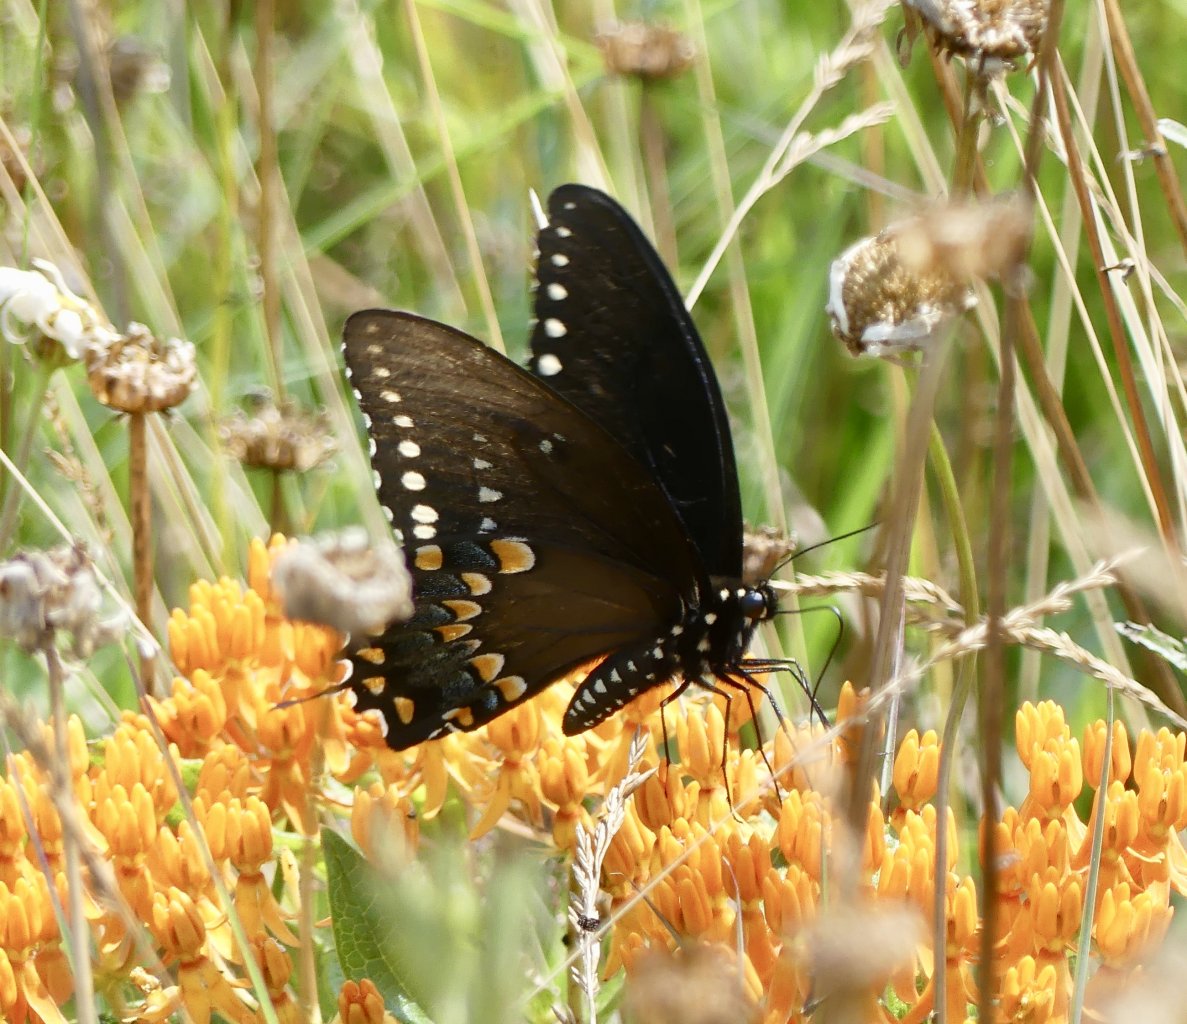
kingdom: Animalia
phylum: Arthropoda
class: Insecta
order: Lepidoptera
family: Papilionidae
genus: Pterourus
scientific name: Pterourus troilus
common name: Spicebush Swallowtail
